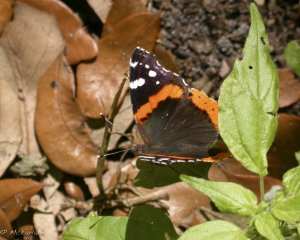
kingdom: Animalia
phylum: Arthropoda
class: Insecta
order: Lepidoptera
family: Nymphalidae
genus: Vanessa
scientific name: Vanessa atalanta
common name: Red Admiral
